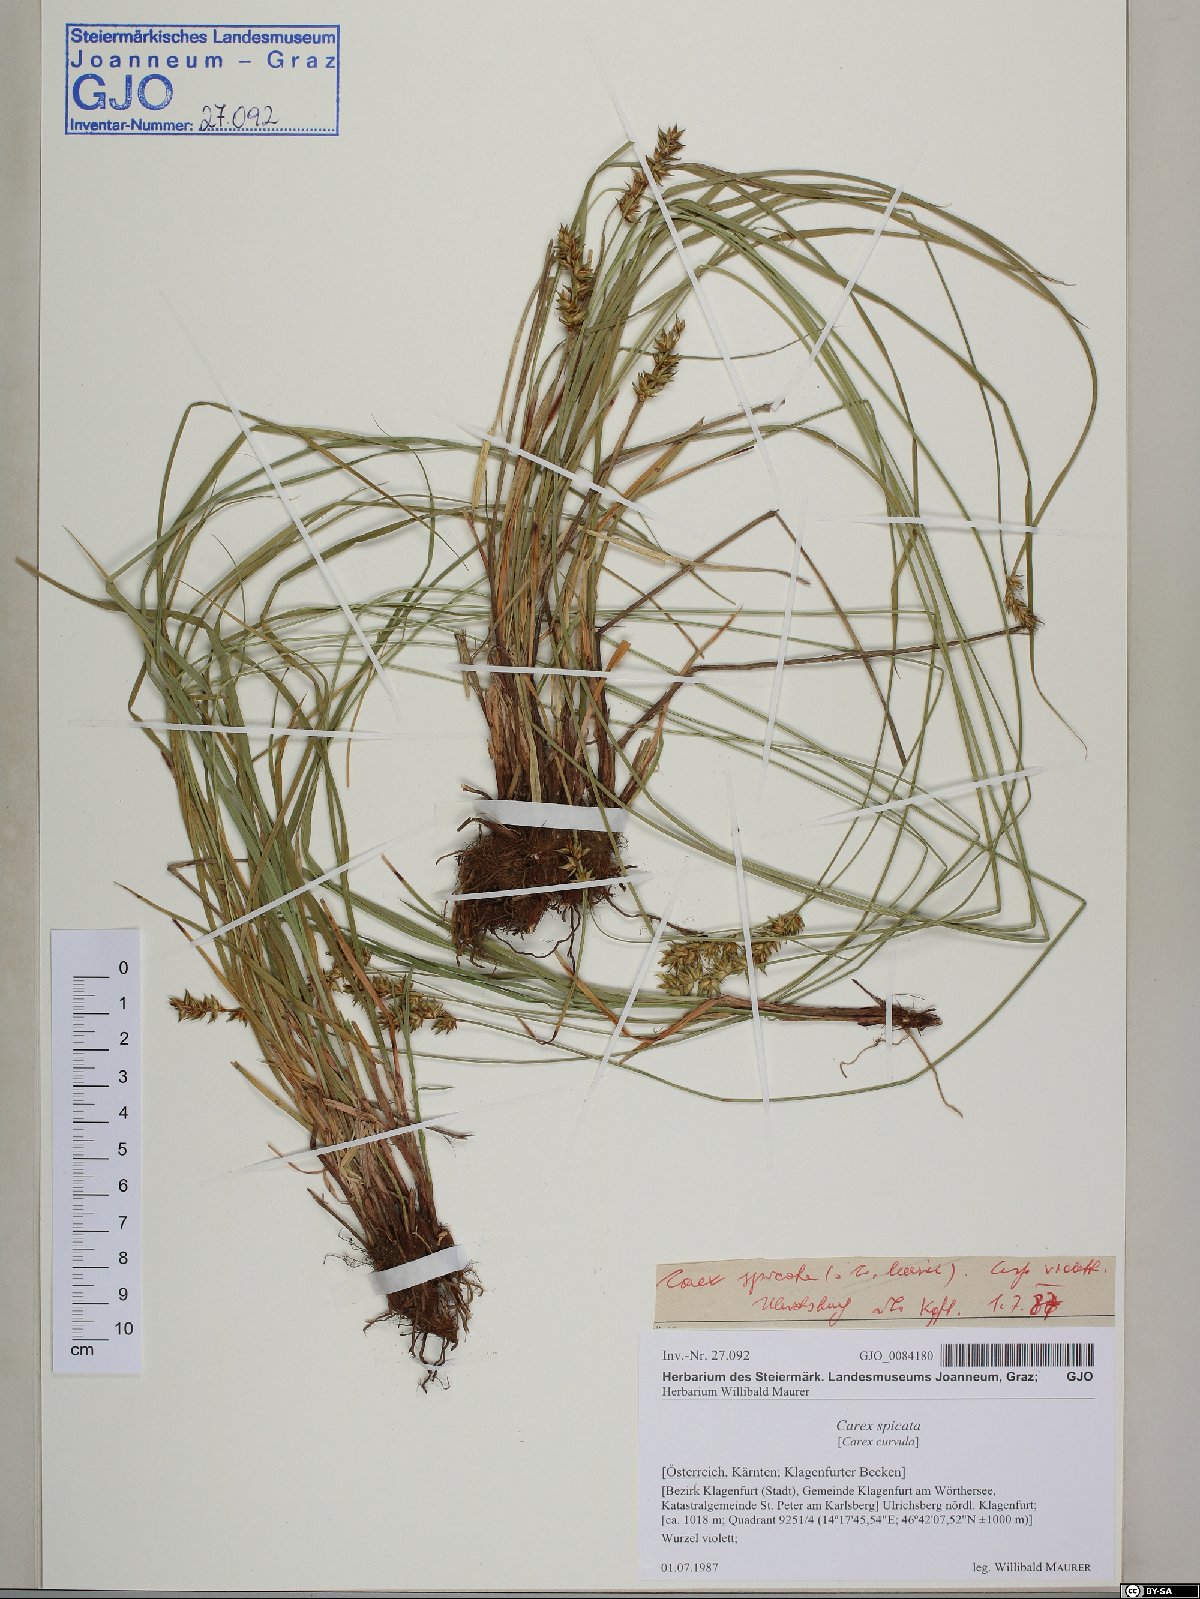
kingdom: Plantae
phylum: Tracheophyta
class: Liliopsida
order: Poales
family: Cyperaceae
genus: Carex
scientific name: Carex spicata
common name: Spiked sedge
